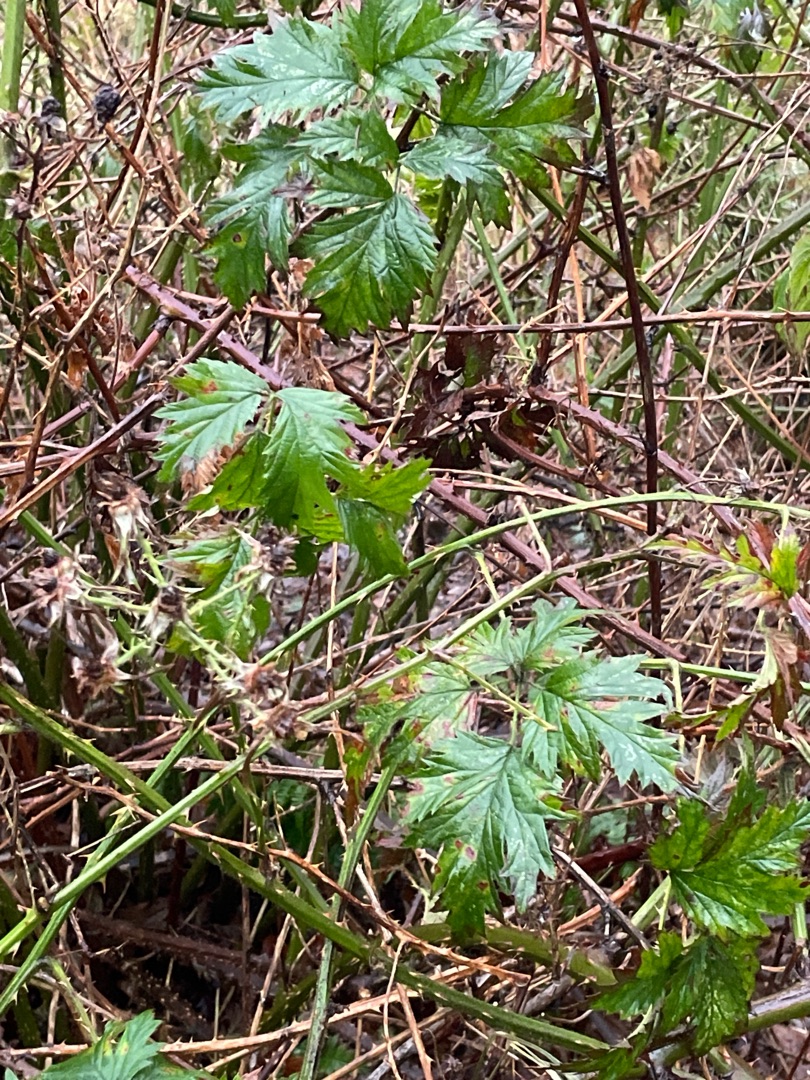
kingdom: Plantae
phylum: Tracheophyta
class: Magnoliopsida
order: Rosales
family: Rosaceae
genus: Rubus
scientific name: Rubus laciniatus
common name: Fliget brombær
